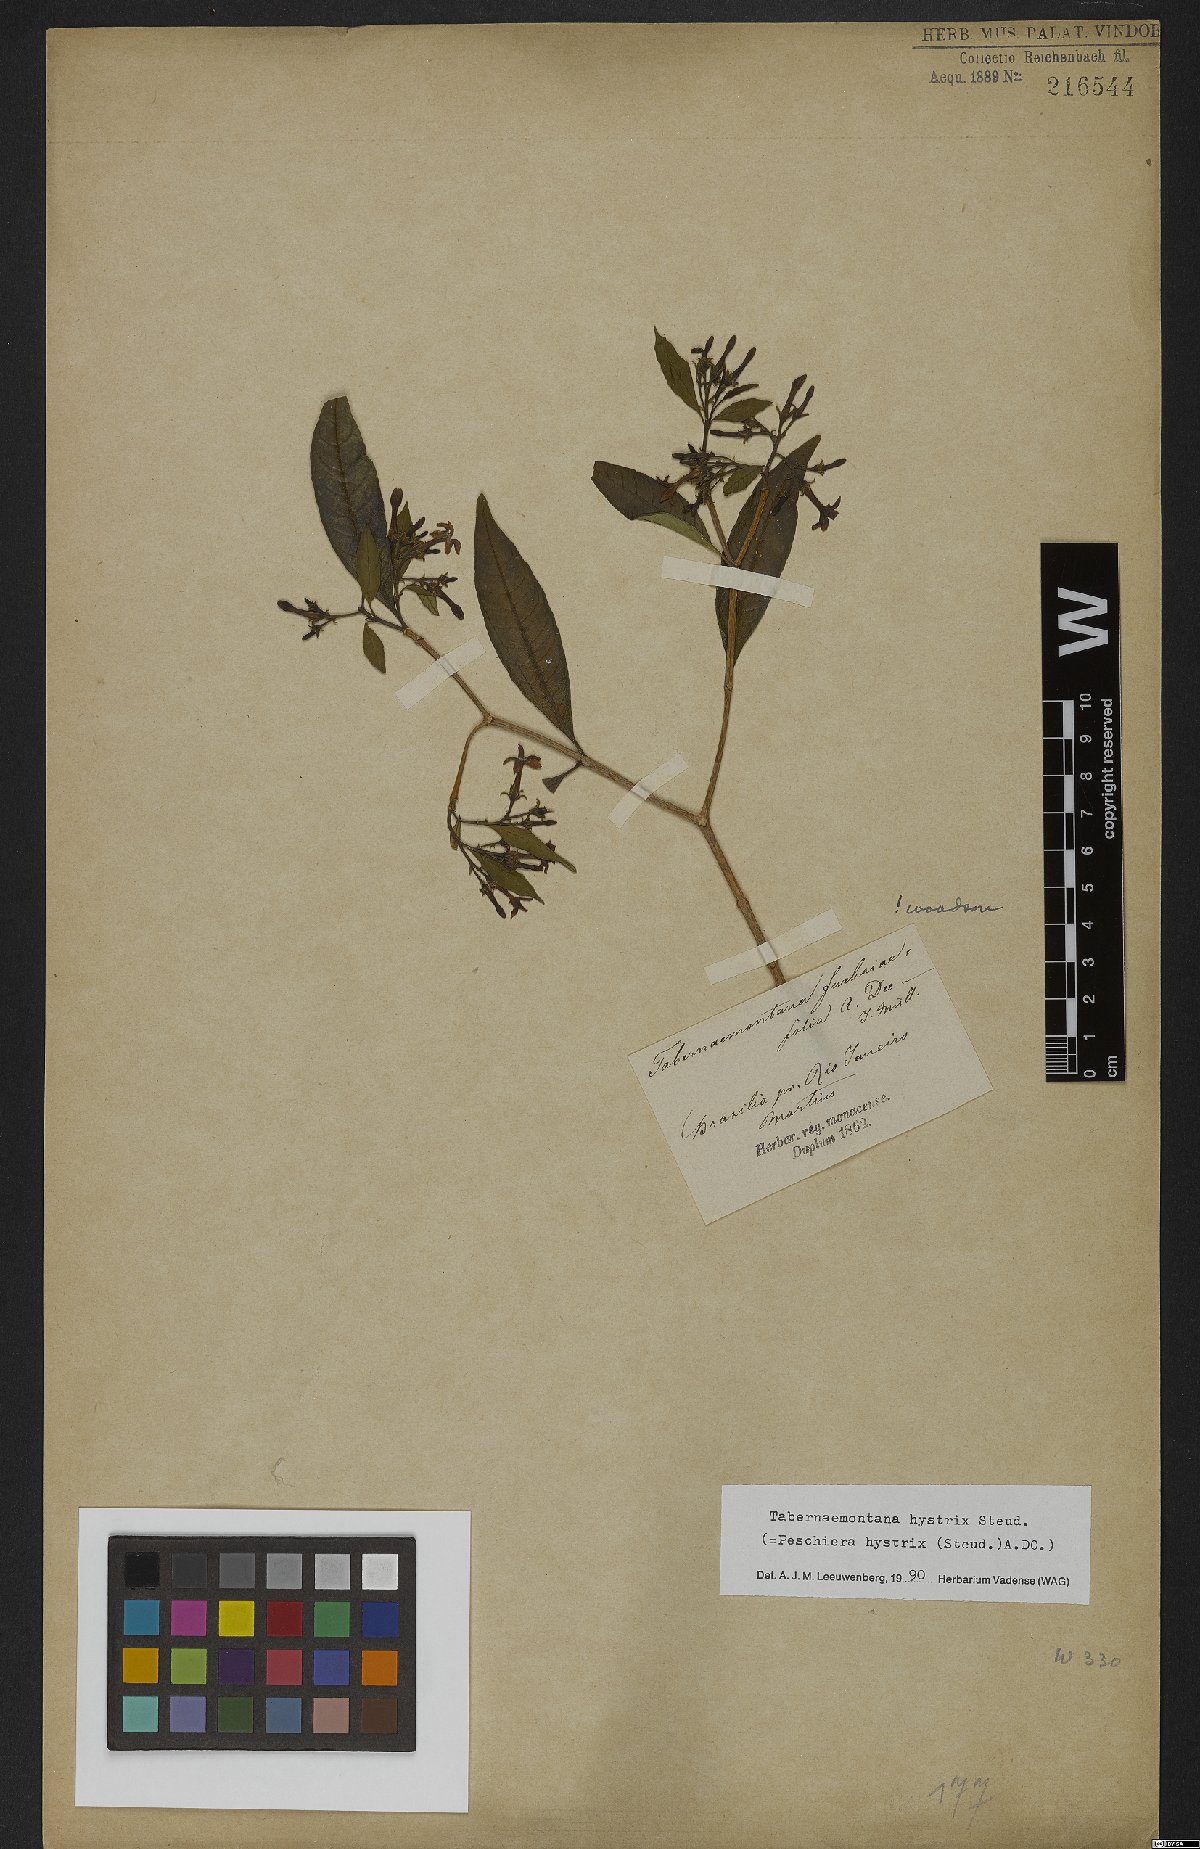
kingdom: Plantae
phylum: Tracheophyta
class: Magnoliopsida
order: Gentianales
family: Apocynaceae
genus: Tabernaemontana
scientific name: Tabernaemontana hystrix
